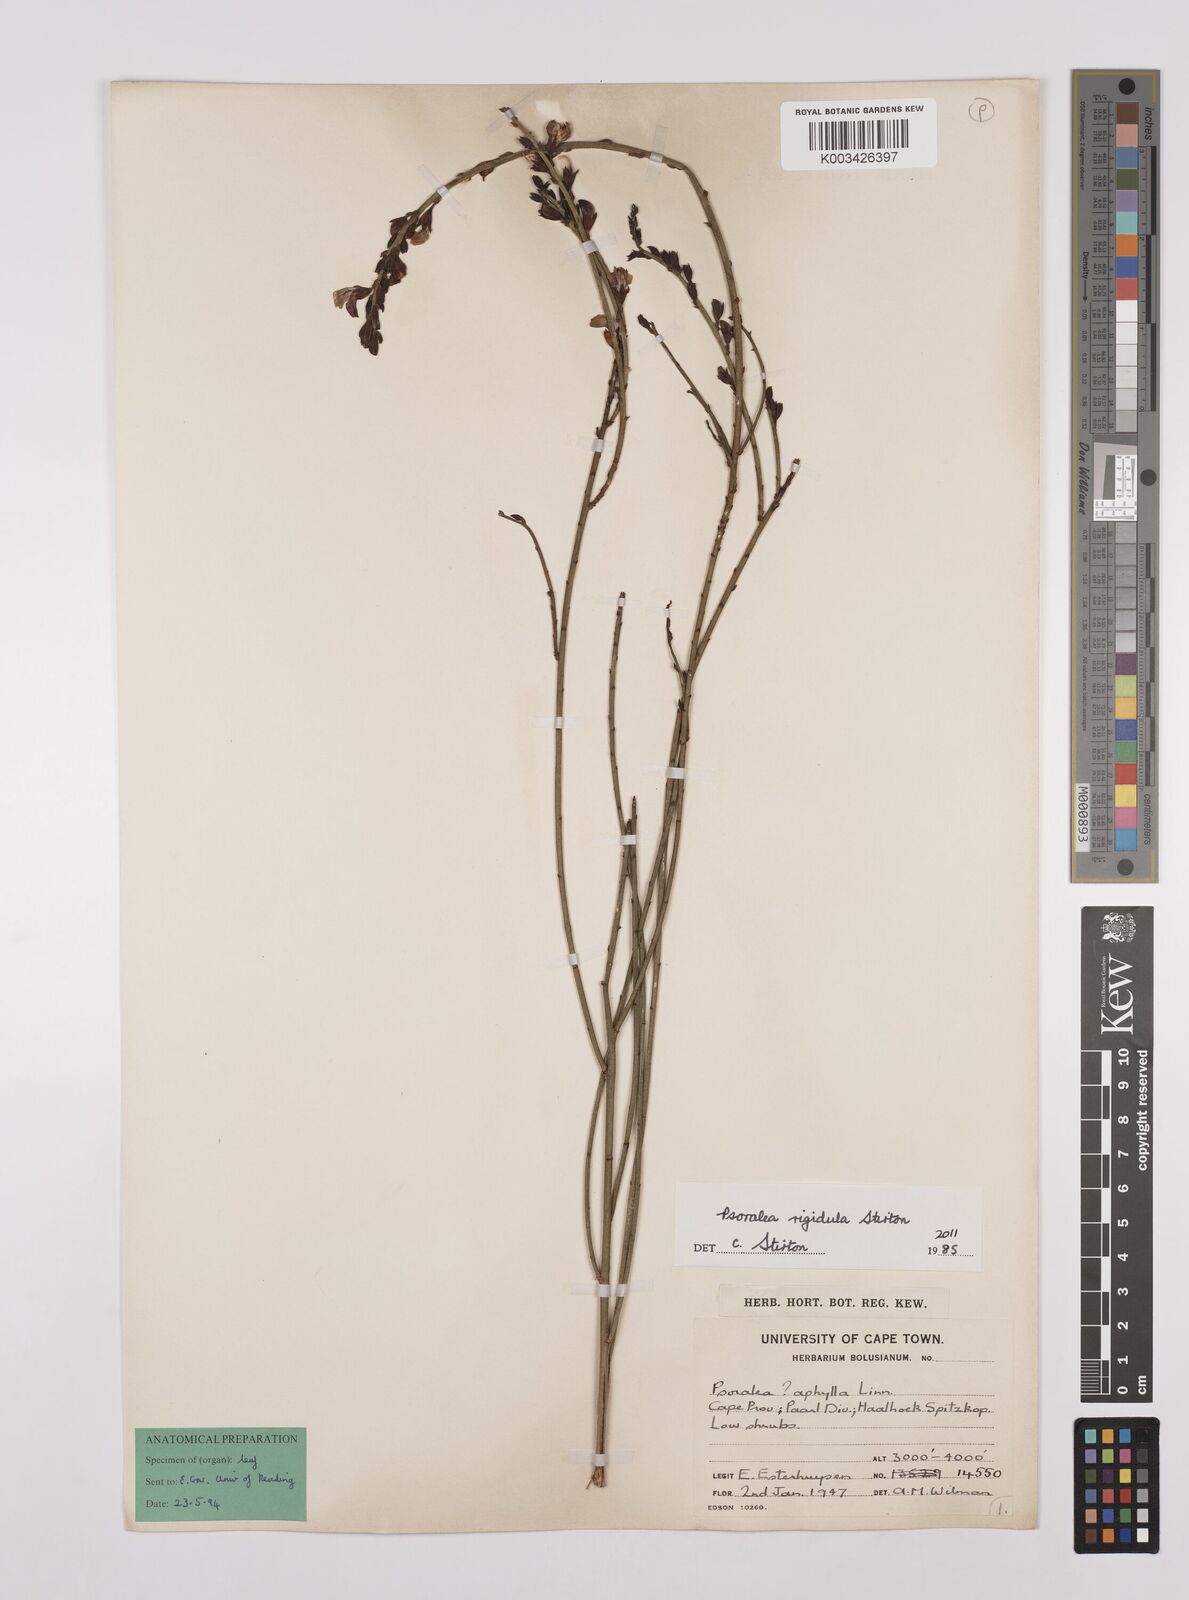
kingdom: Plantae
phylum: Tracheophyta
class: Magnoliopsida
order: Fabales
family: Fabaceae
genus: Psoralea
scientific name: Psoralea rigidula
